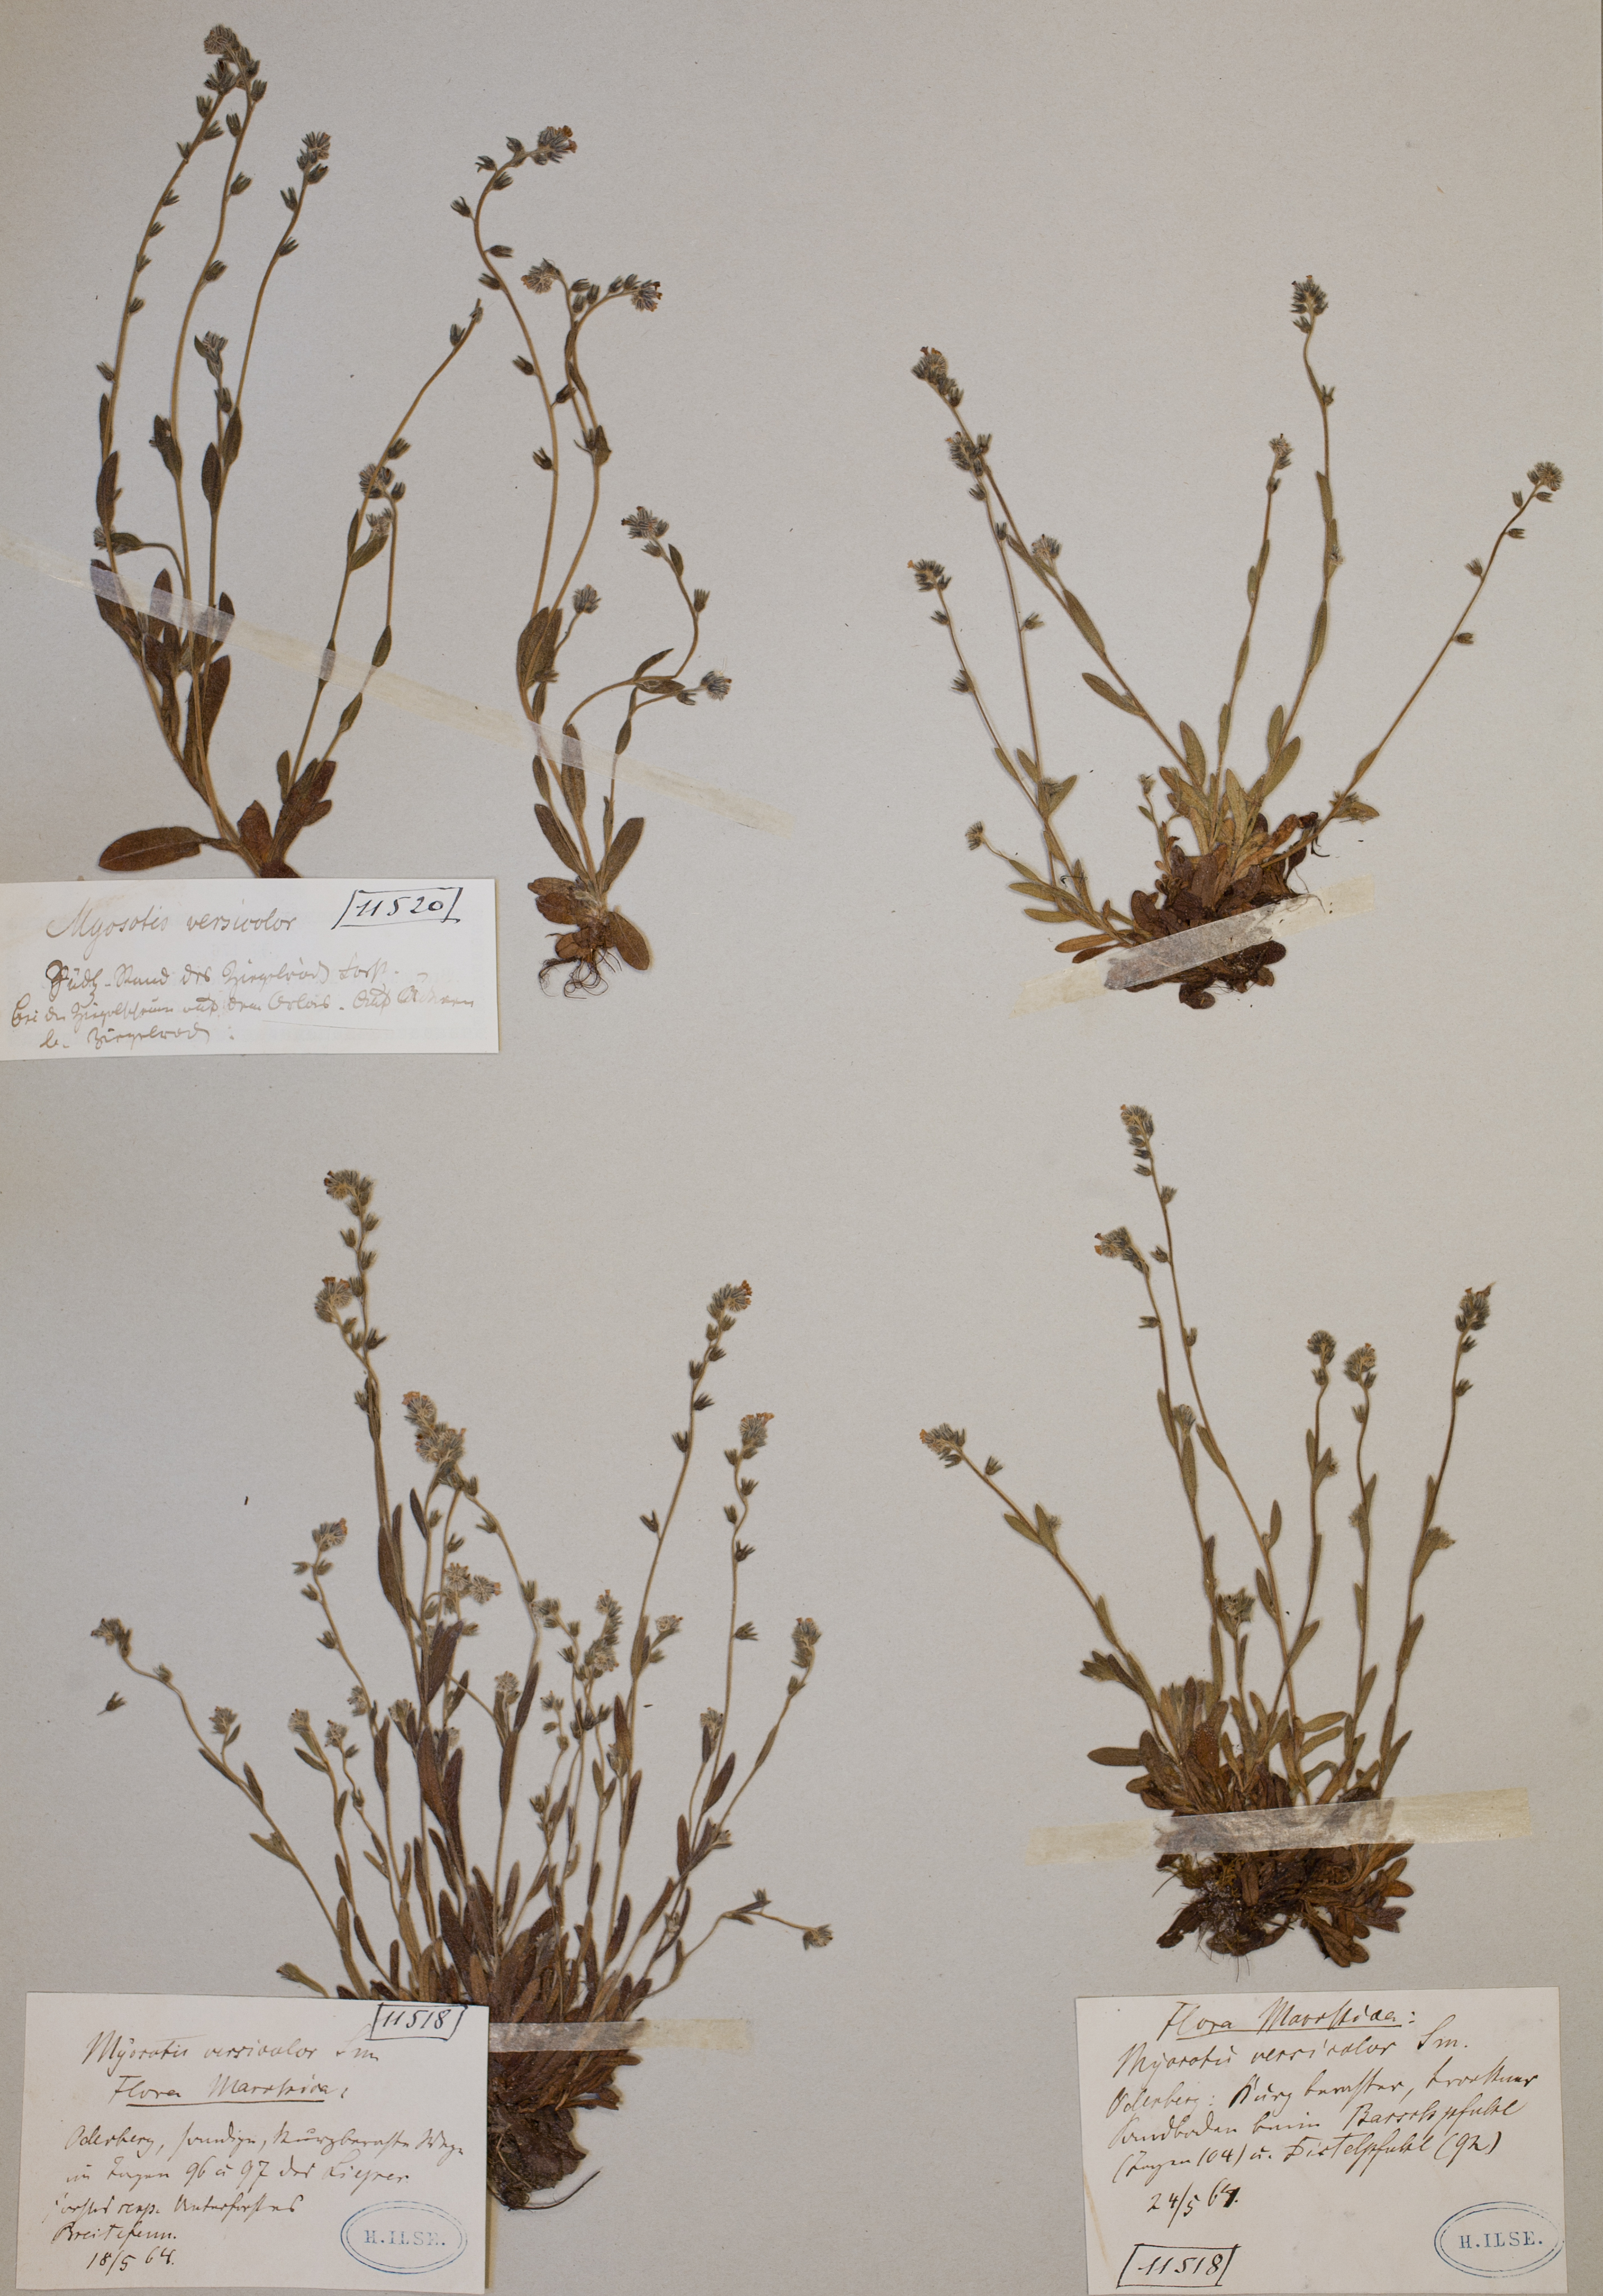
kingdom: Plantae
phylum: Tracheophyta
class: Magnoliopsida
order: Boraginales
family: Boraginaceae
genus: Myosotis
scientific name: Myosotis discolor
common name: Changing forget-me-not
